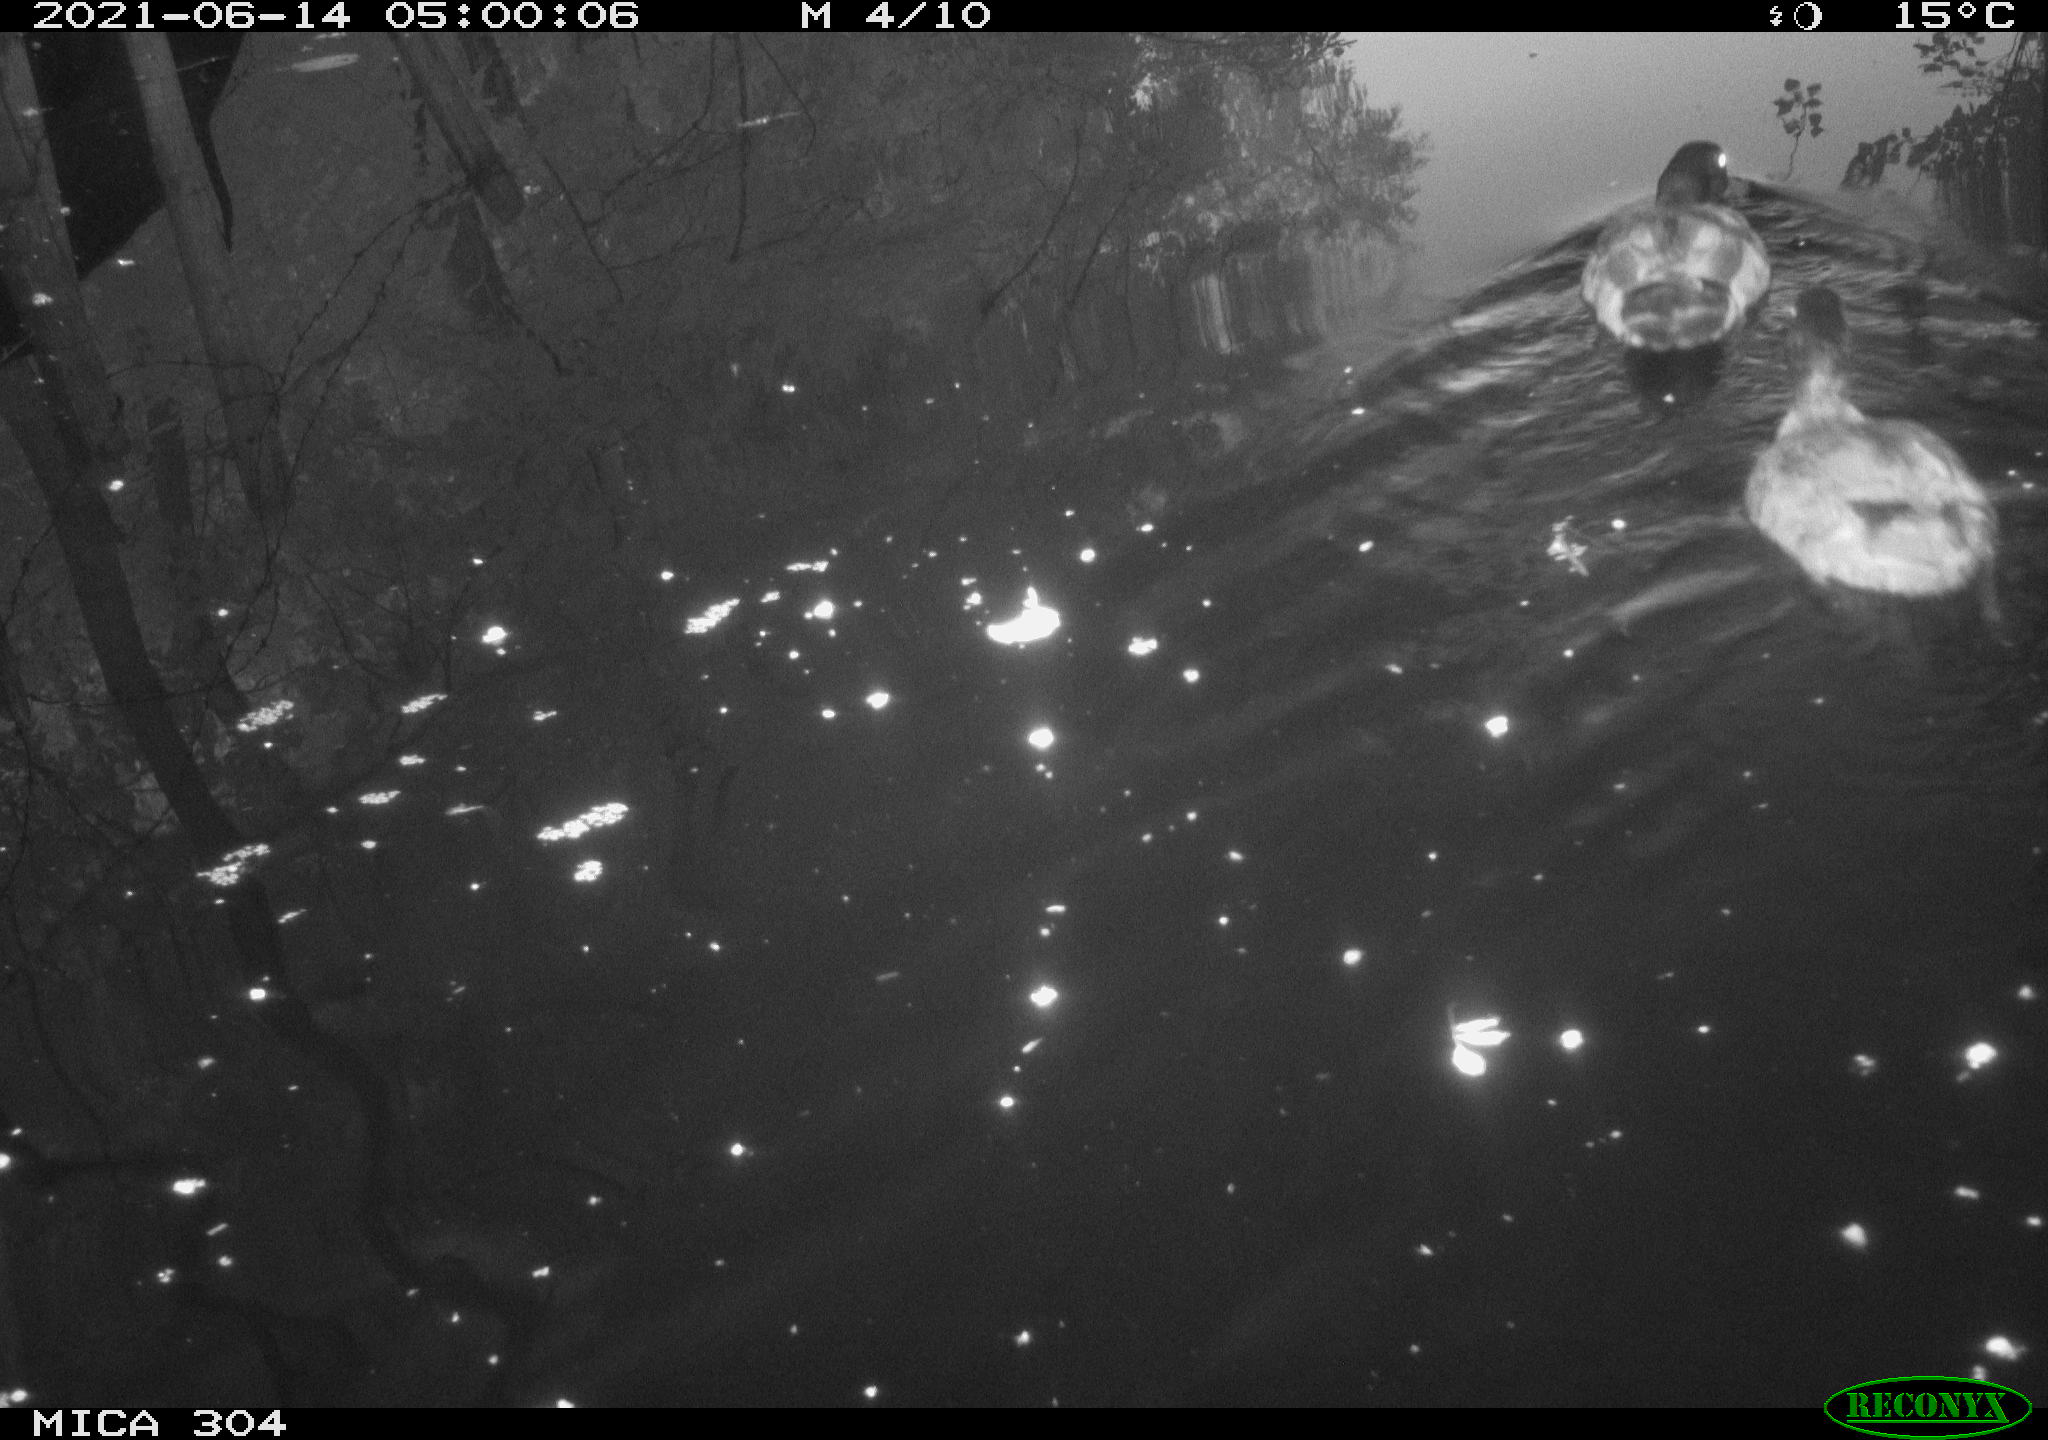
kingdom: Animalia
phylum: Chordata
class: Aves
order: Anseriformes
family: Anatidae
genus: Mareca
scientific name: Mareca strepera
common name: Gadwall
